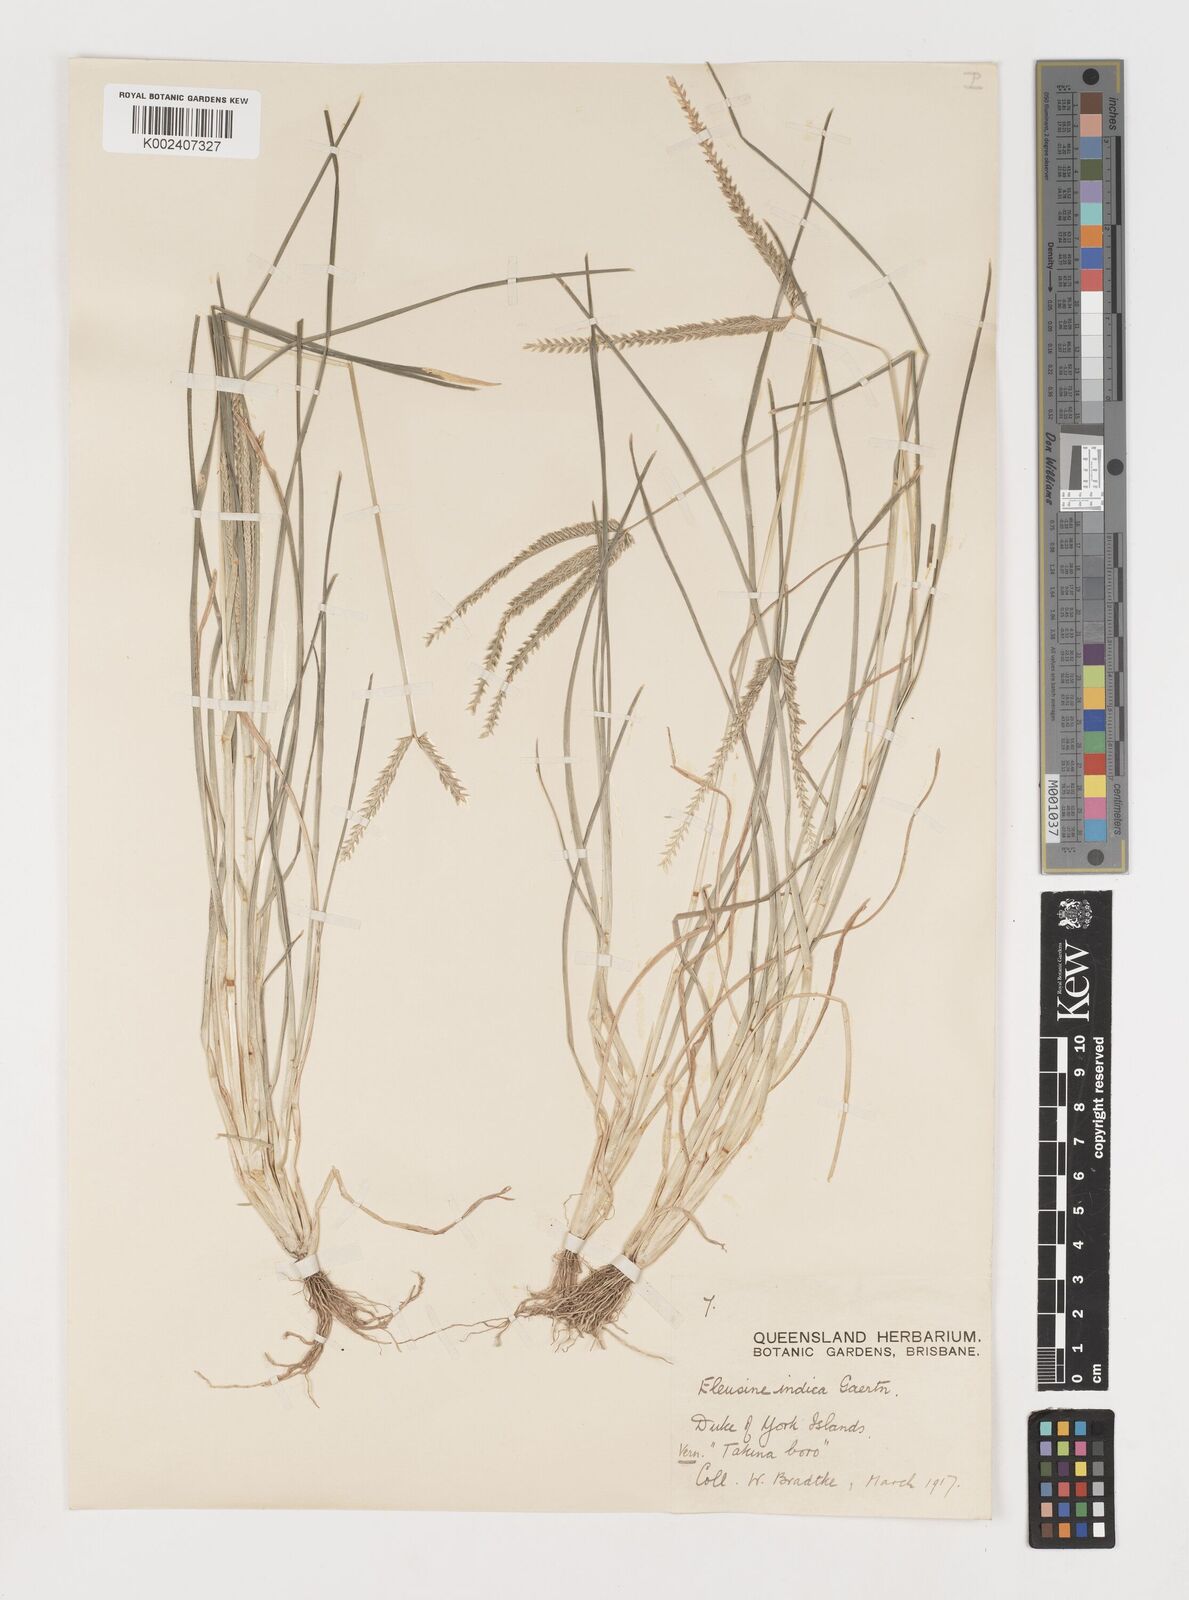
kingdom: Plantae
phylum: Tracheophyta
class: Liliopsida
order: Poales
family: Poaceae
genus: Eleusine
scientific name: Eleusine indica
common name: Yard-grass
